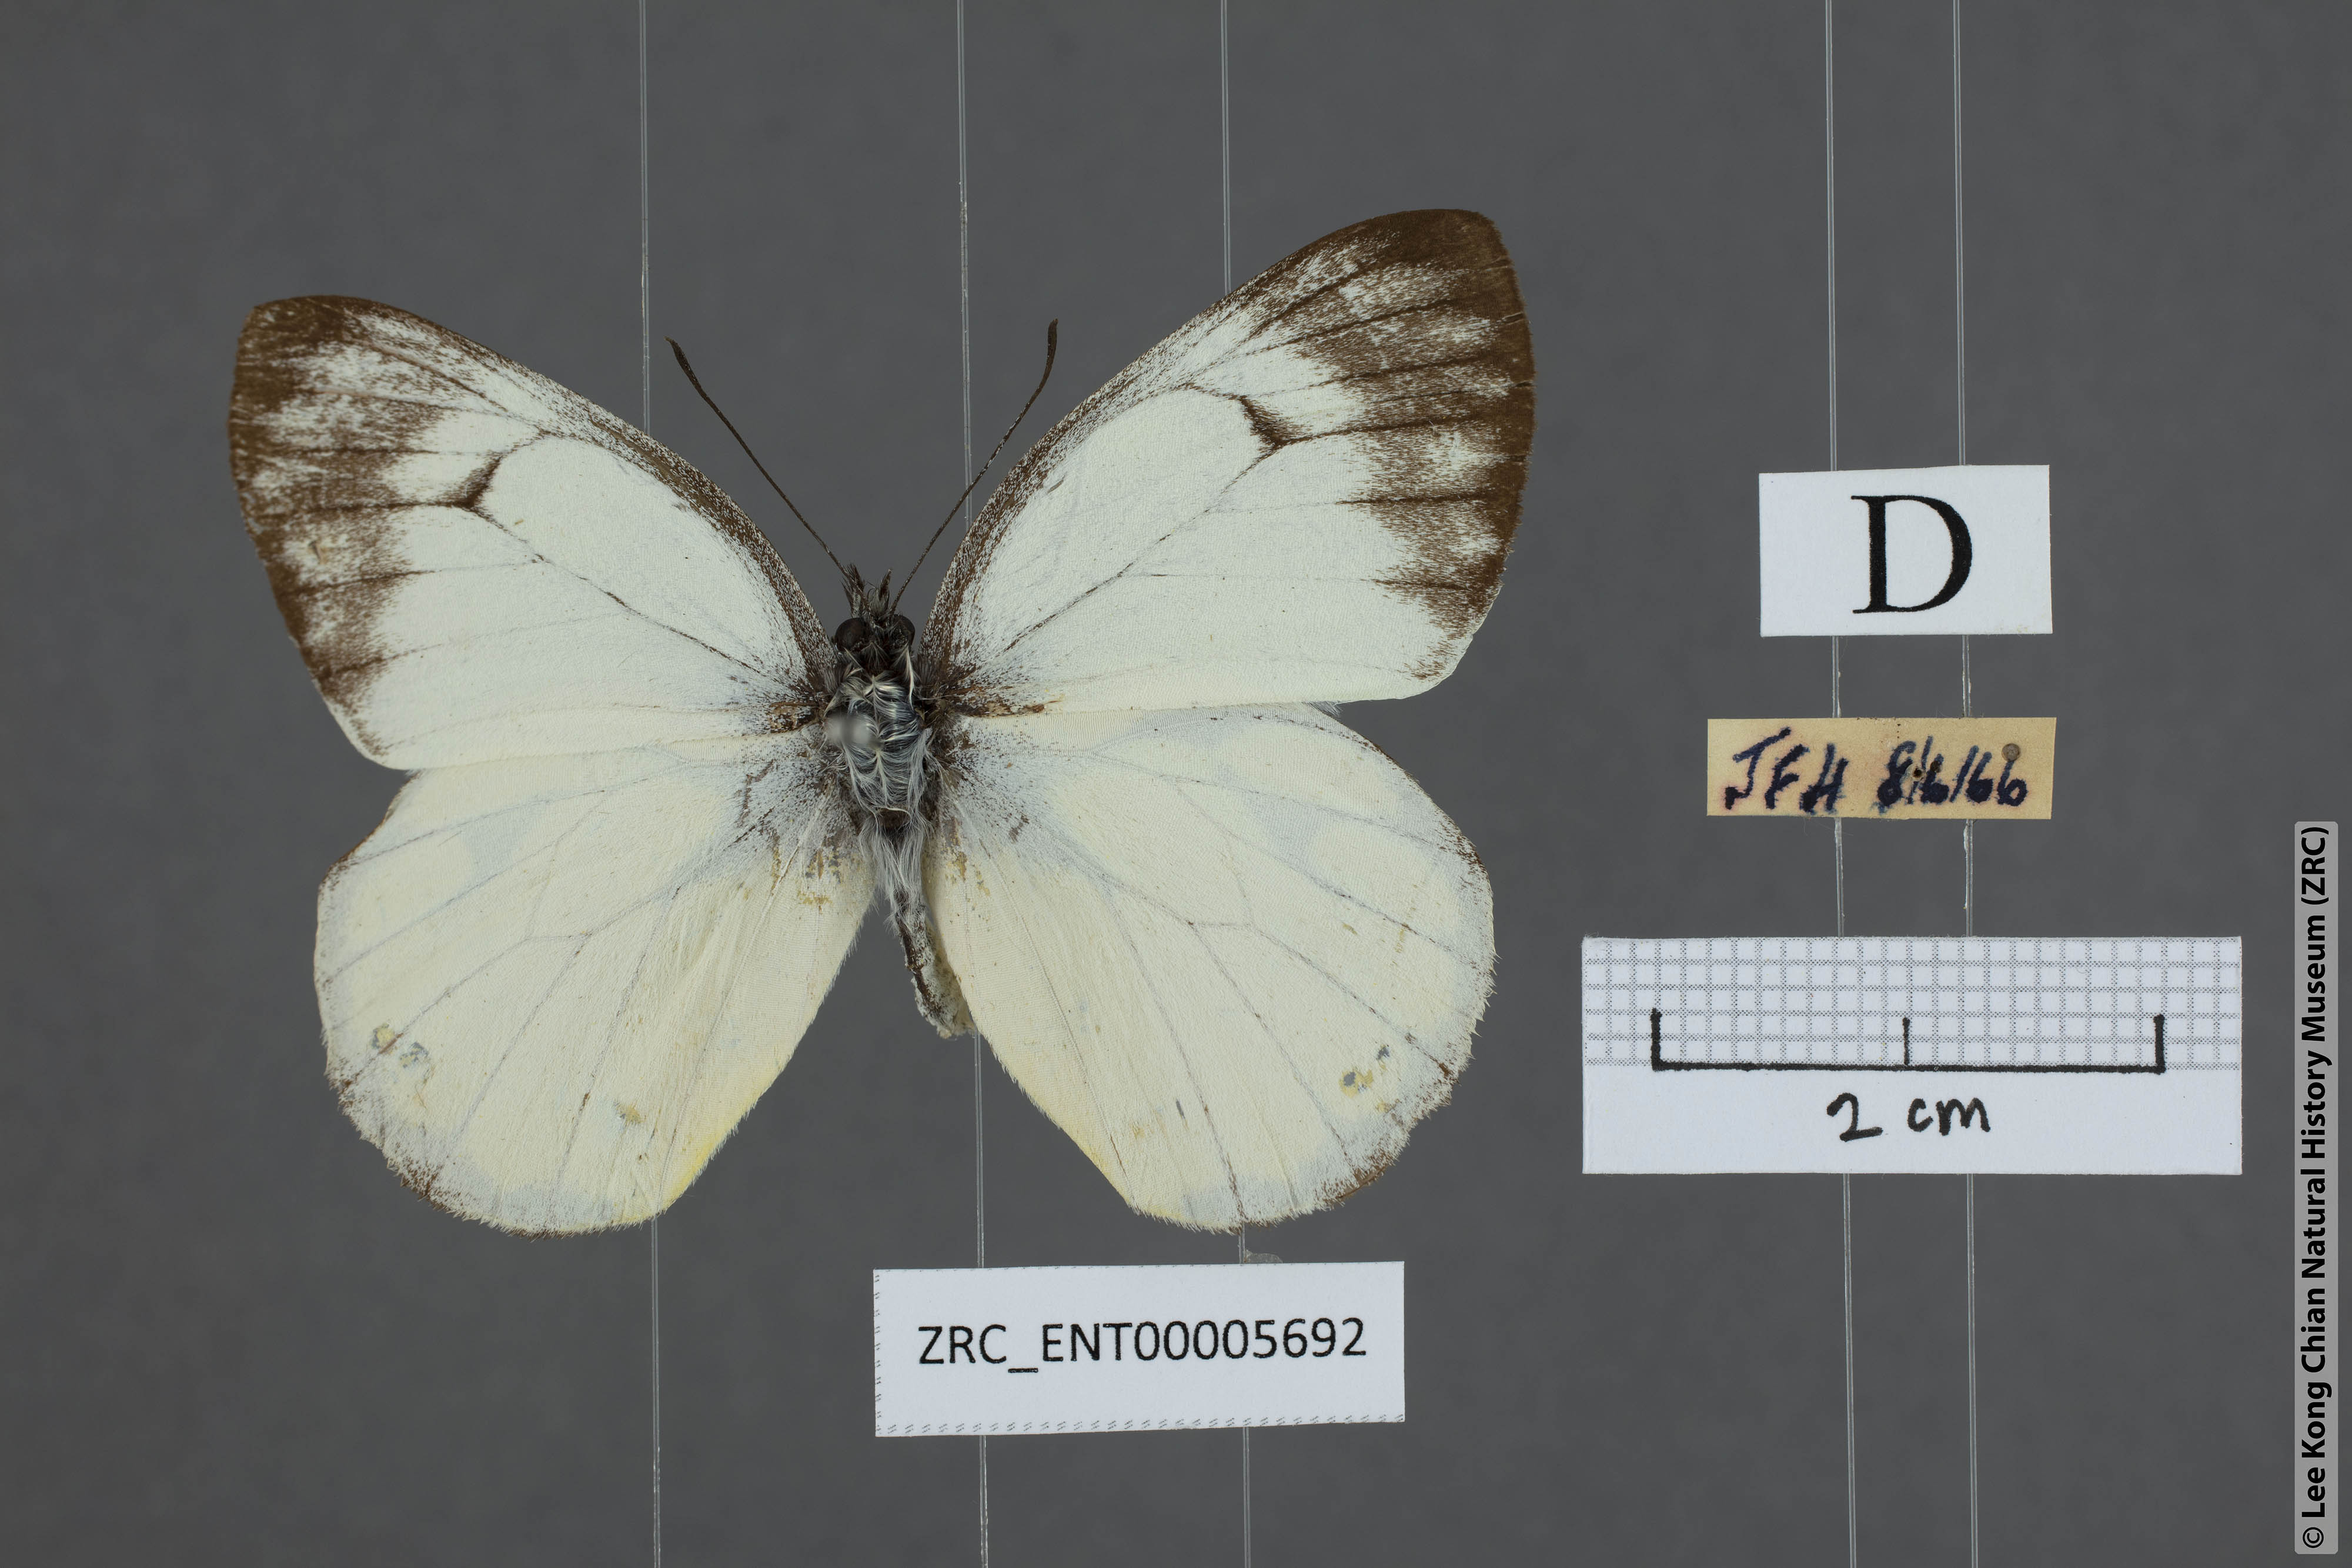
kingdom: Animalia
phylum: Arthropoda
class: Insecta
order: Lepidoptera
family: Pieridae
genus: Delias
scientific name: Delias georgina
